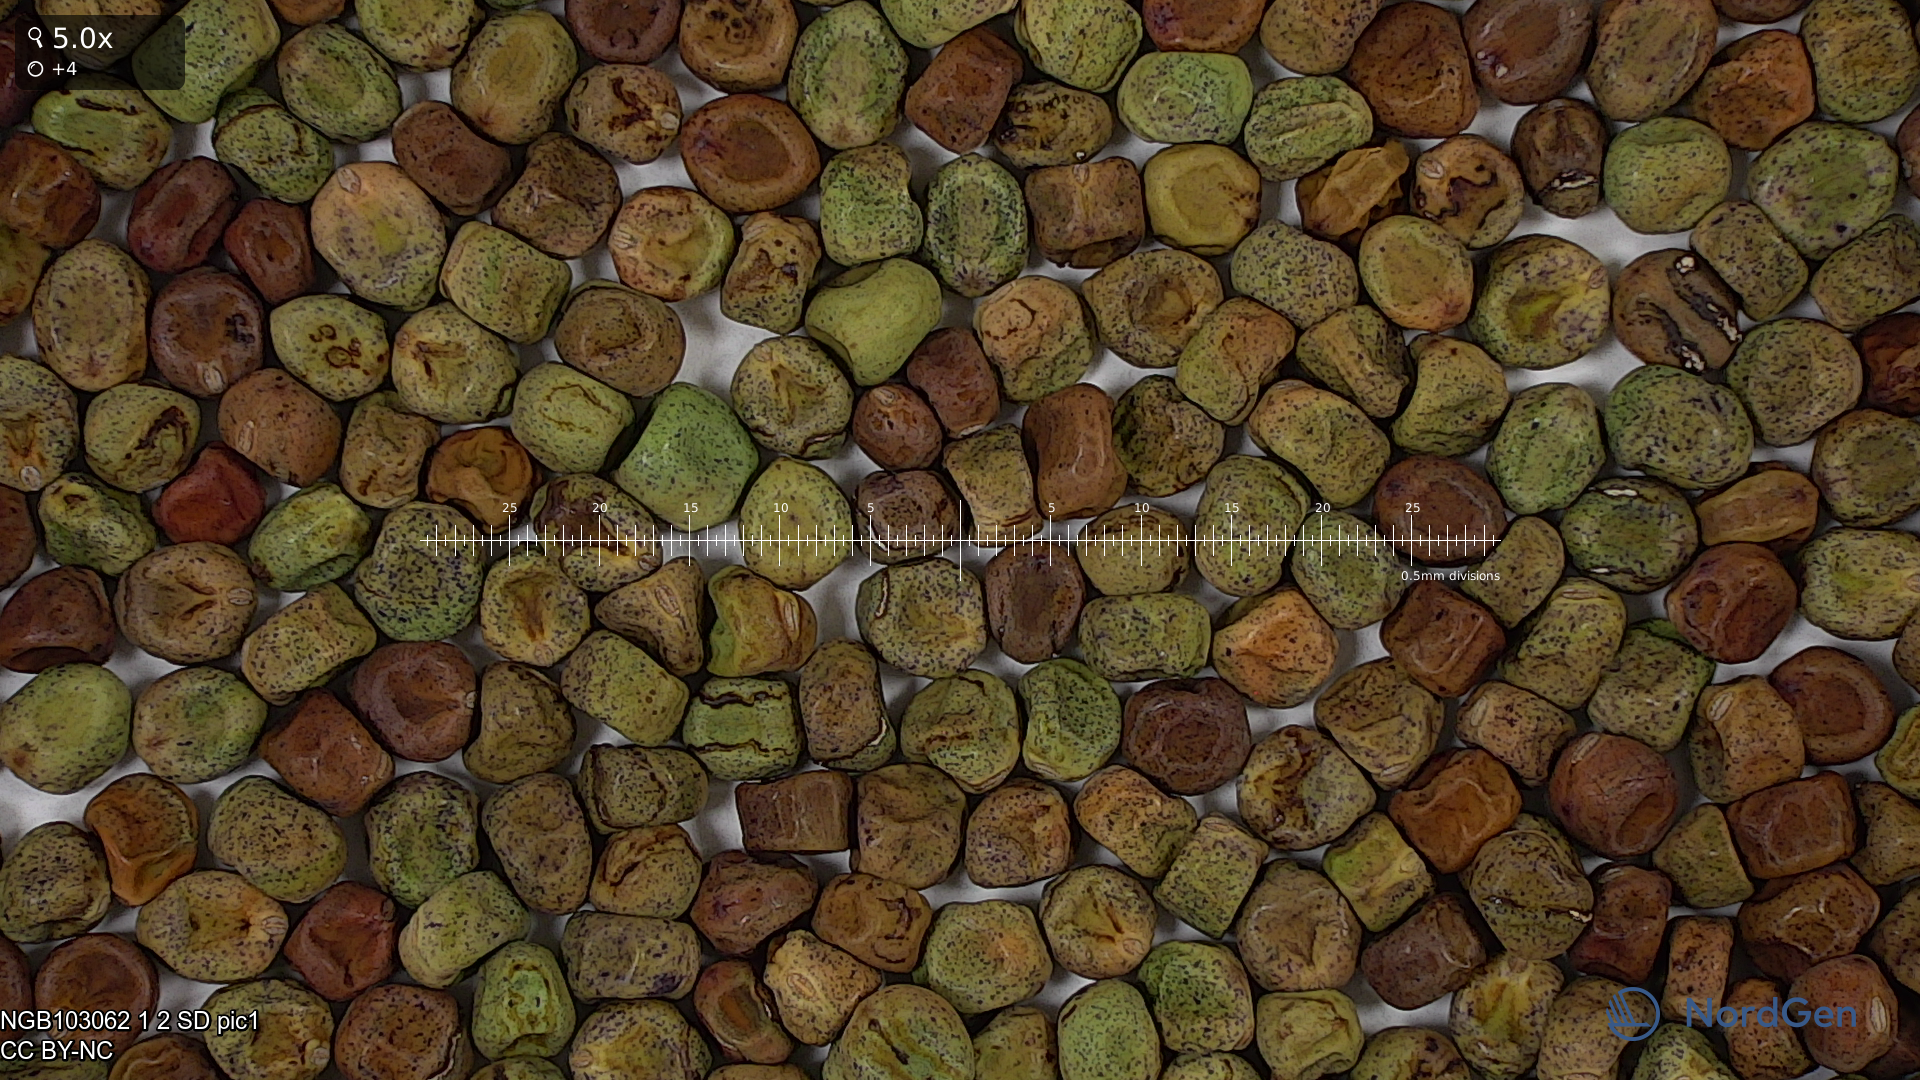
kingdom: Plantae
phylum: Tracheophyta
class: Magnoliopsida
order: Fabales
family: Fabaceae
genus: Lathyrus
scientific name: Lathyrus oleraceus
